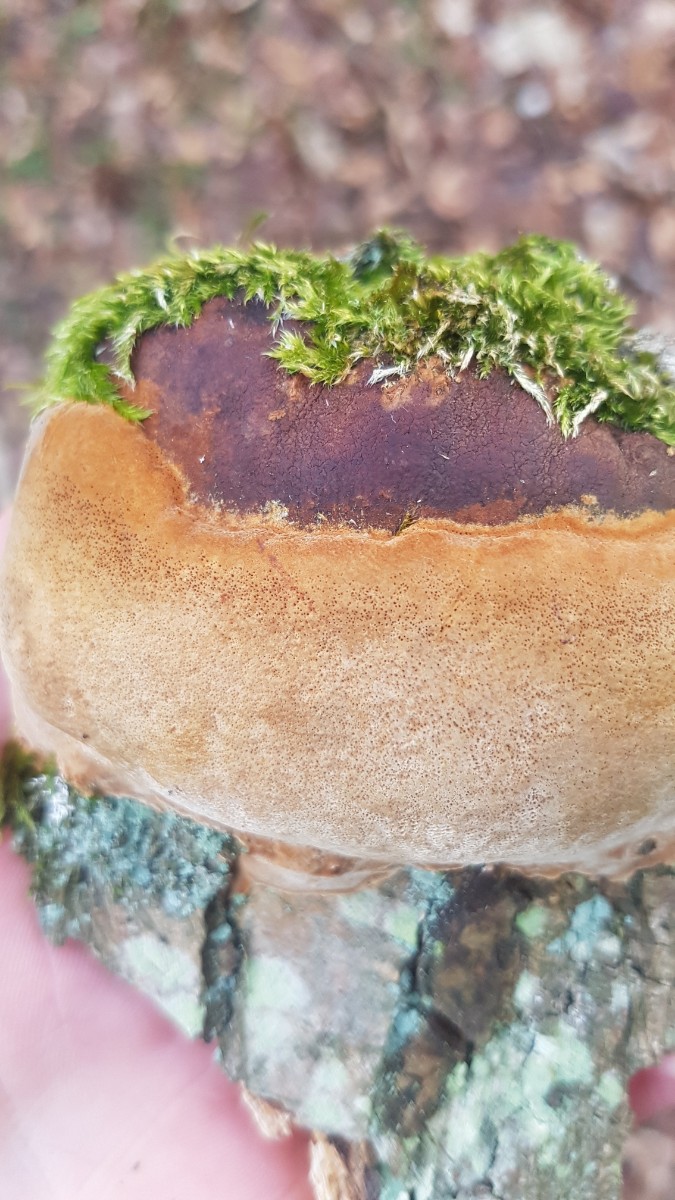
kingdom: Fungi
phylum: Basidiomycota
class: Agaricomycetes
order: Hymenochaetales
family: Hymenochaetaceae
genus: Fuscoporia
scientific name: Fuscoporia ferrea
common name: skorpe-ildporesvamp
